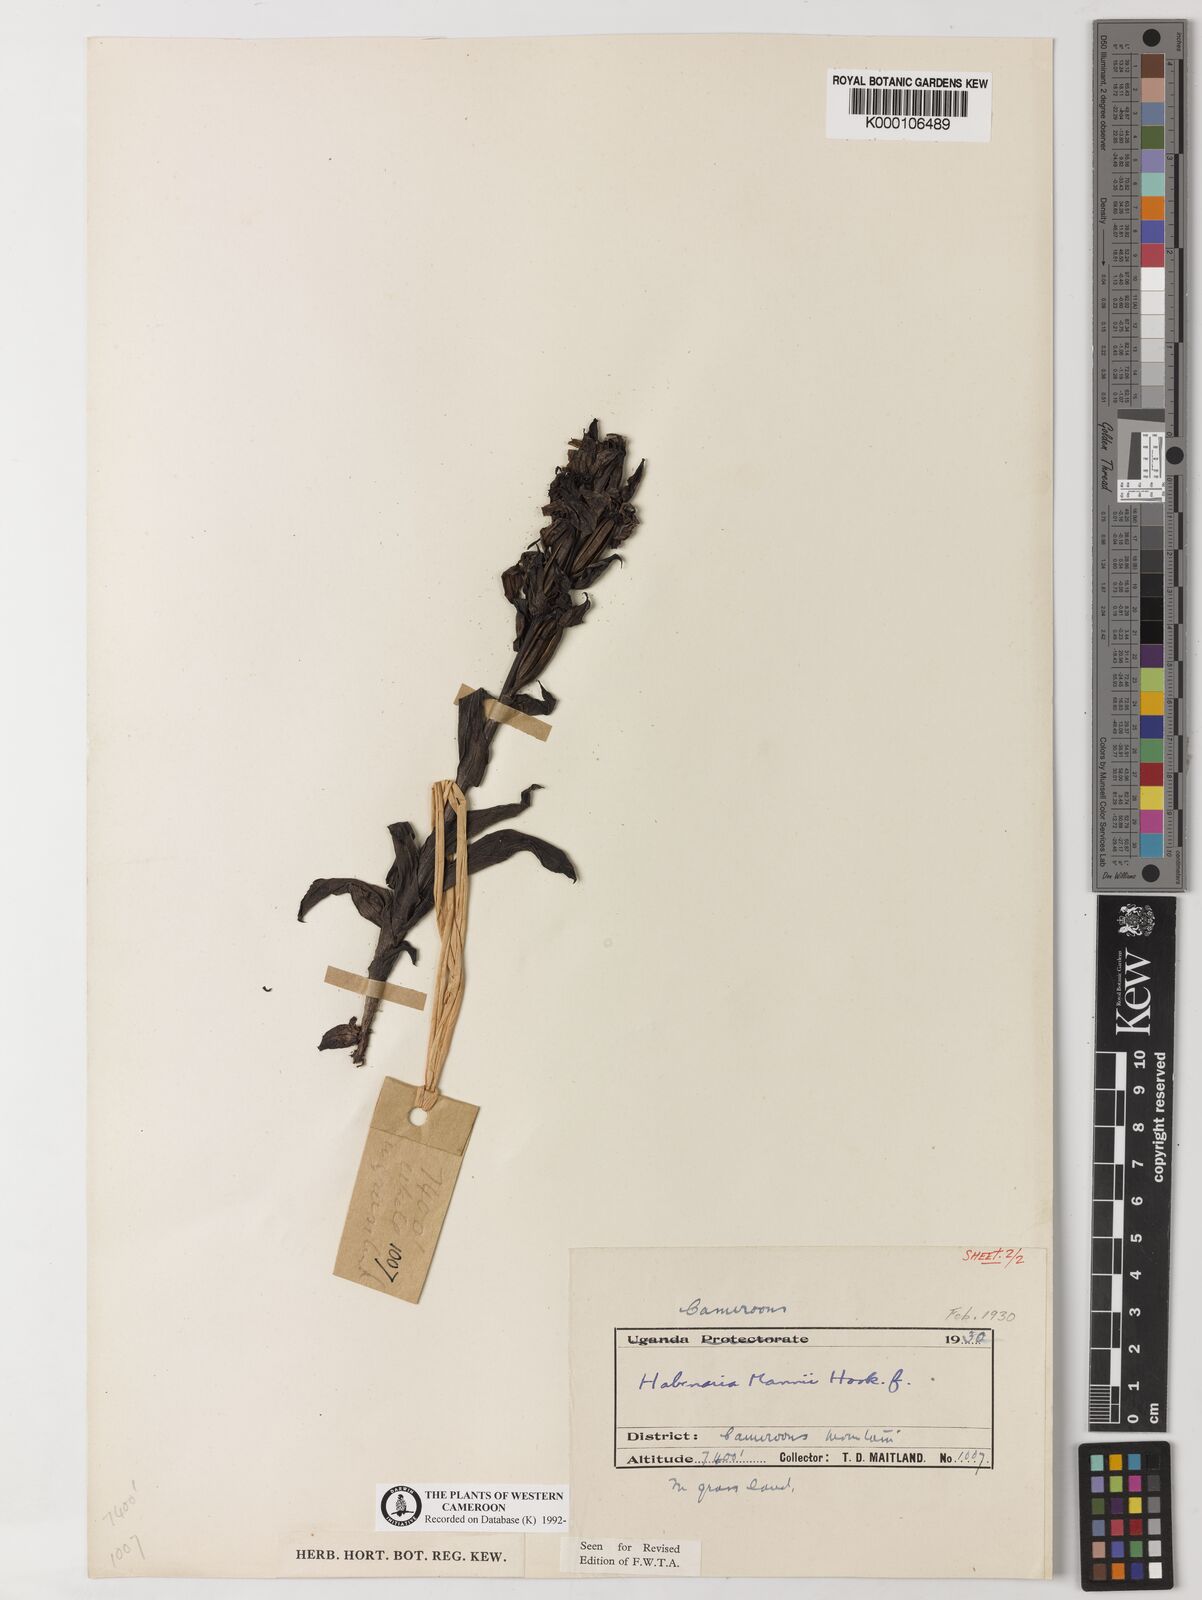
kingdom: Plantae
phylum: Tracheophyta
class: Liliopsida
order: Asparagales
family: Orchidaceae
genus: Habenaria
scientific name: Habenaria mannii
